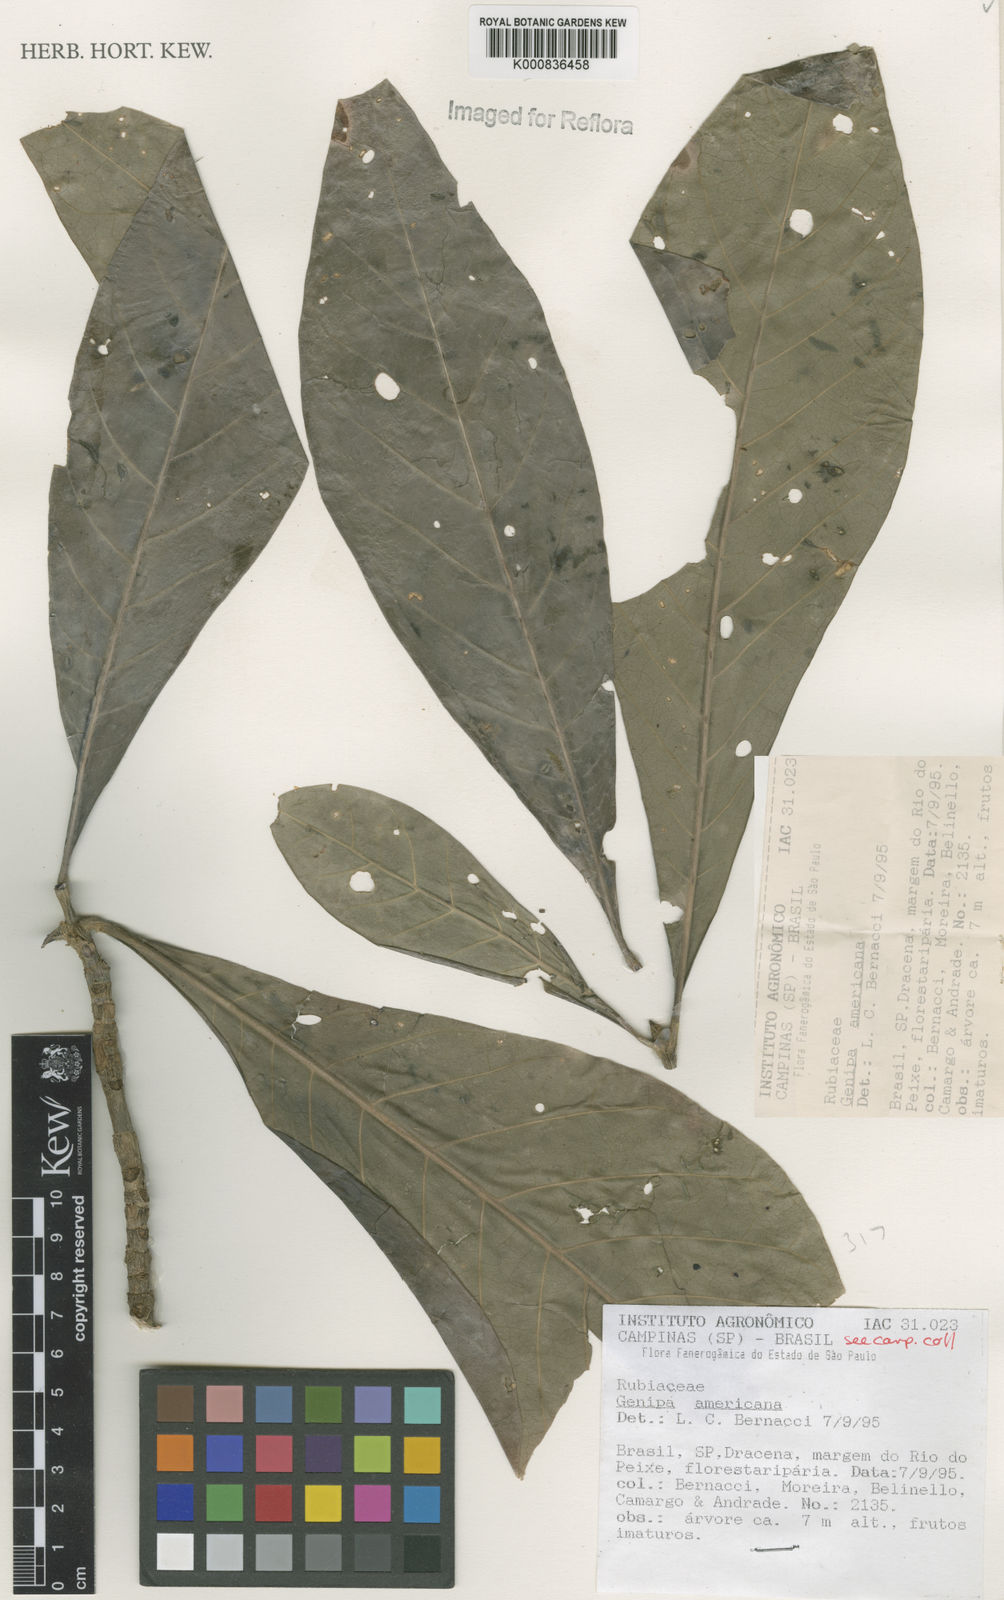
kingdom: Plantae
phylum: Tracheophyta
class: Magnoliopsida
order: Gentianales
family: Rubiaceae
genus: Genipa
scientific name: Genipa americana
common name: Genipap
